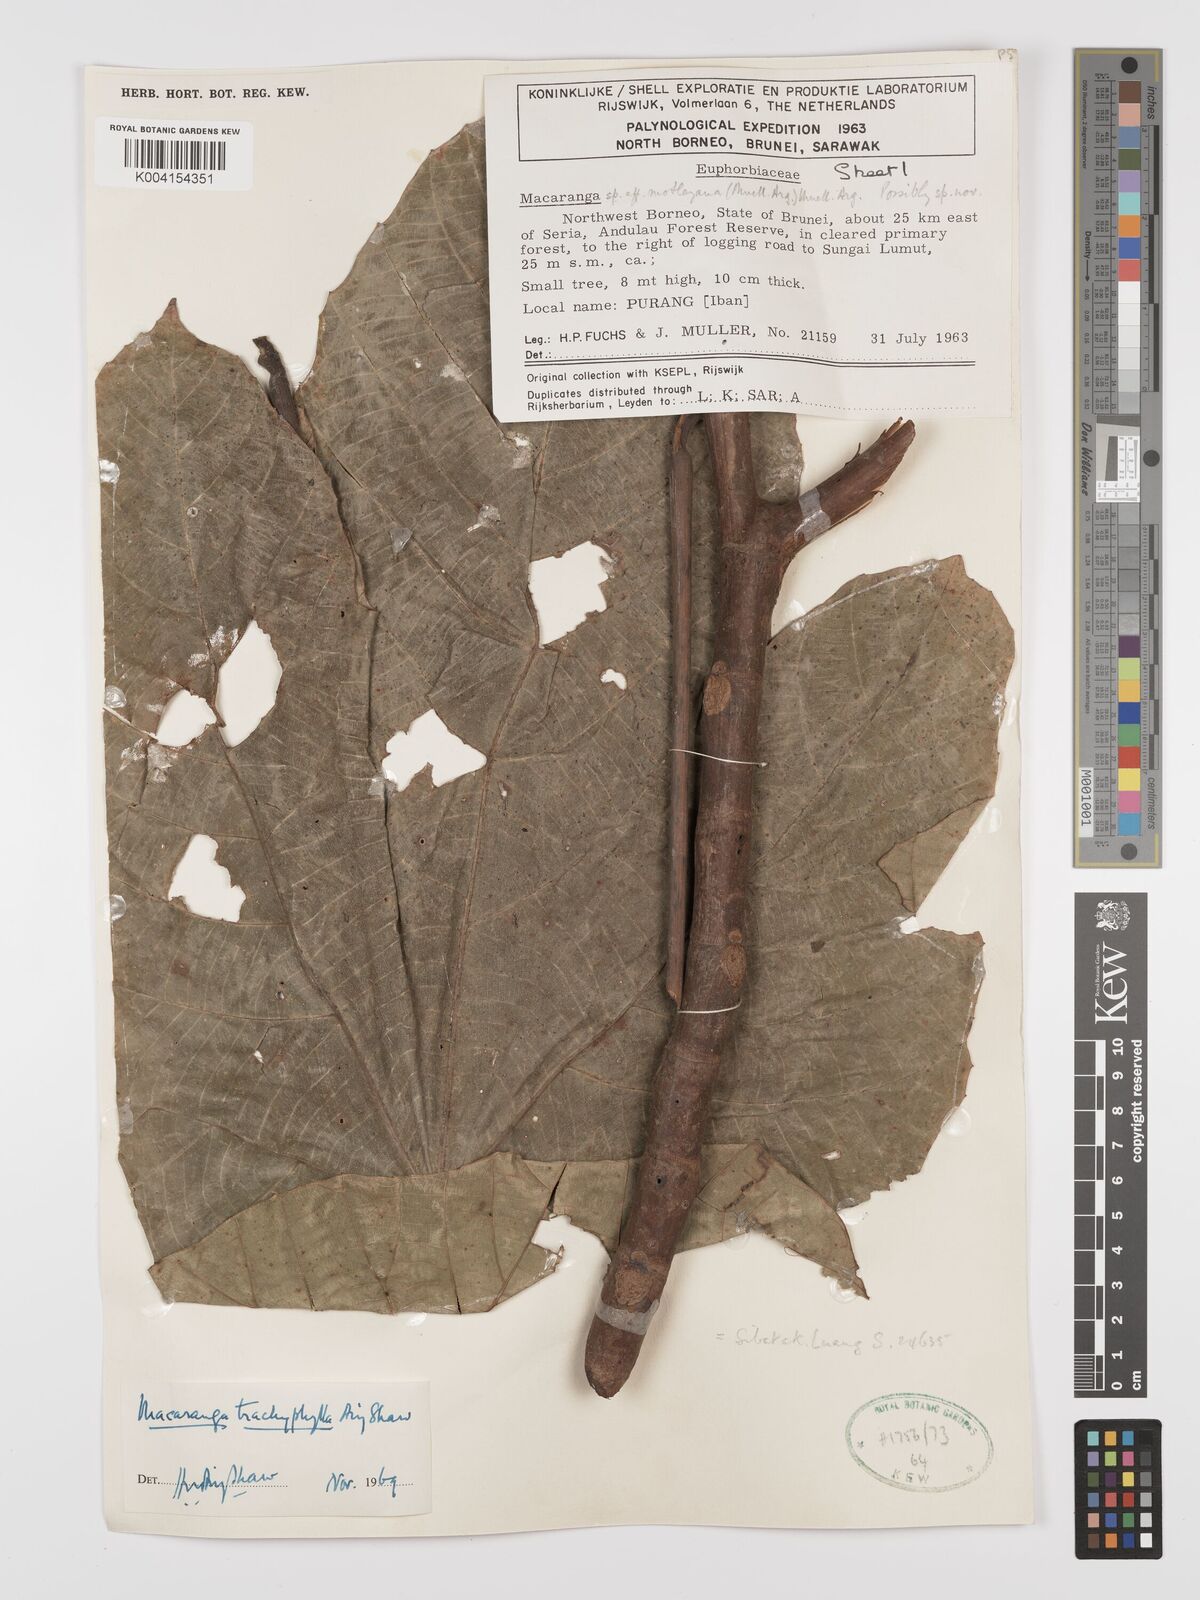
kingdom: Plantae
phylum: Tracheophyta
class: Magnoliopsida
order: Malpighiales
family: Euphorbiaceae
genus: Macaranga
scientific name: Macaranga trachyphylla
